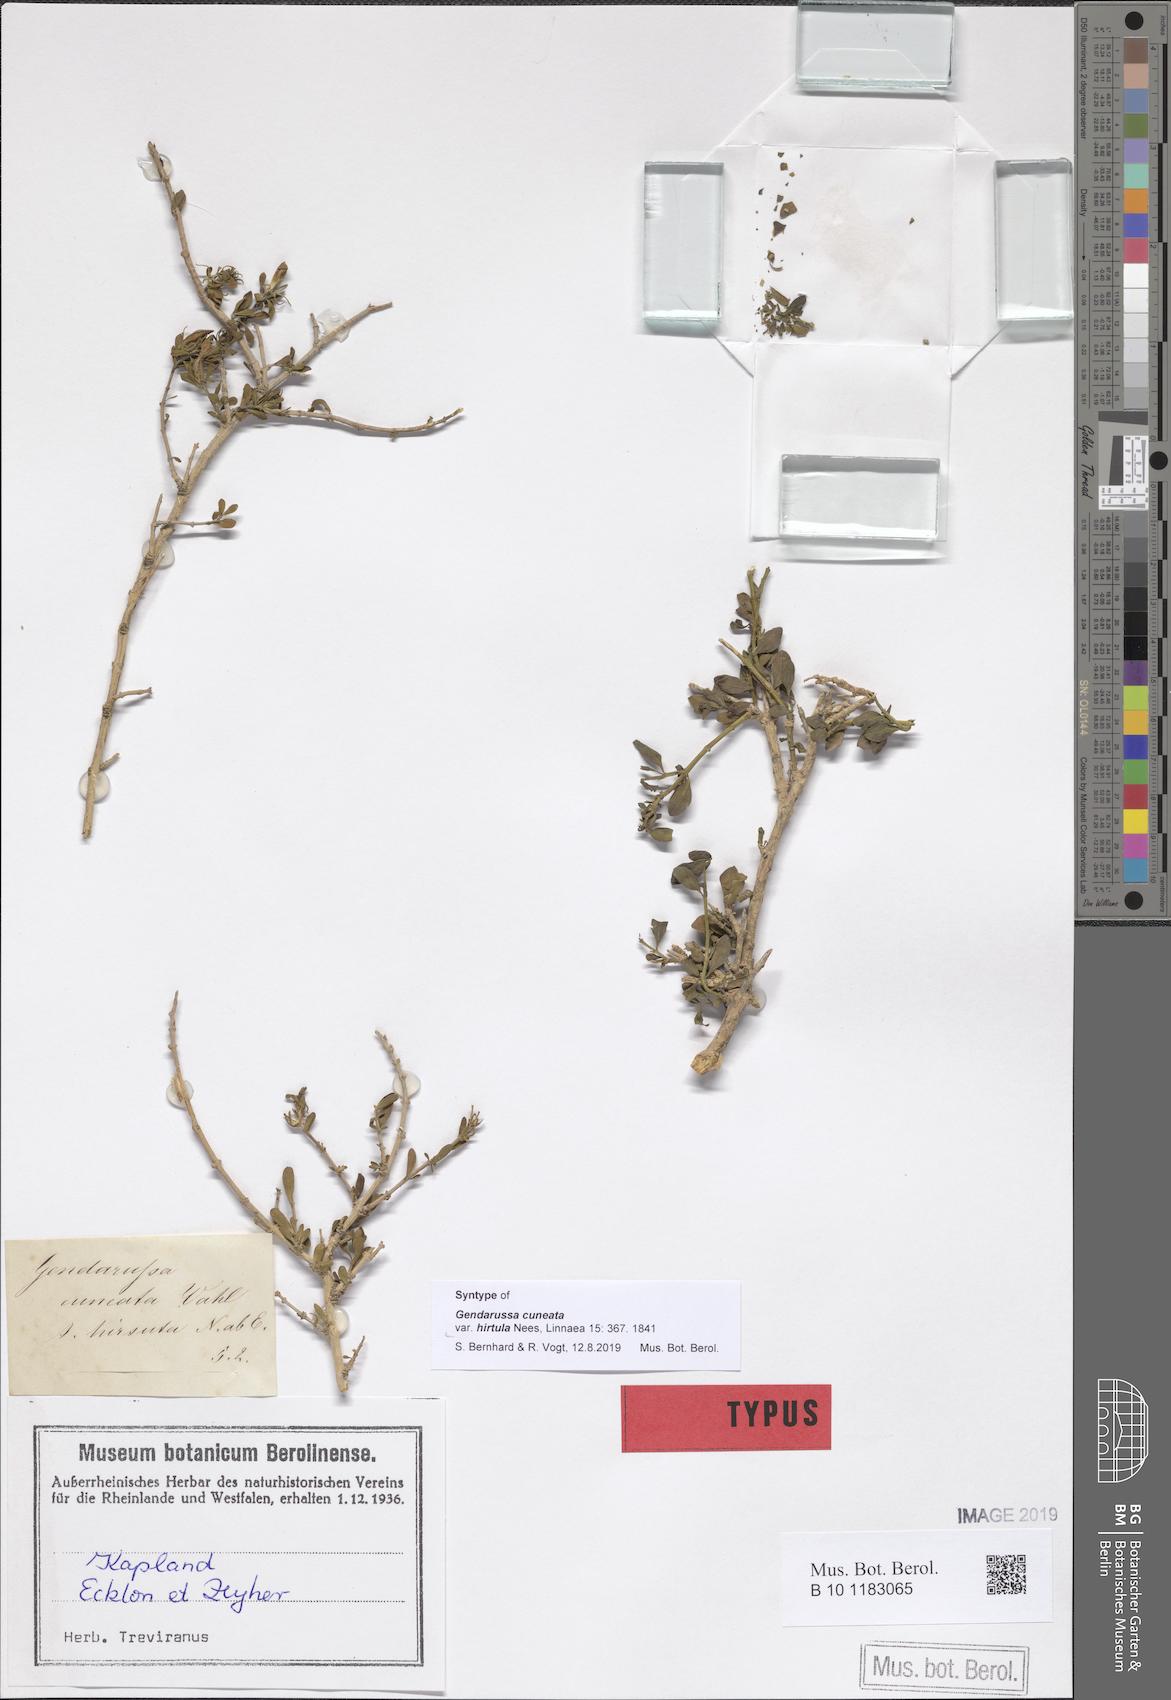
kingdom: Plantae
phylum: Tracheophyta
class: Magnoliopsida
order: Lamiales
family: Acanthaceae
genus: Justicia
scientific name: Justicia cuneata
